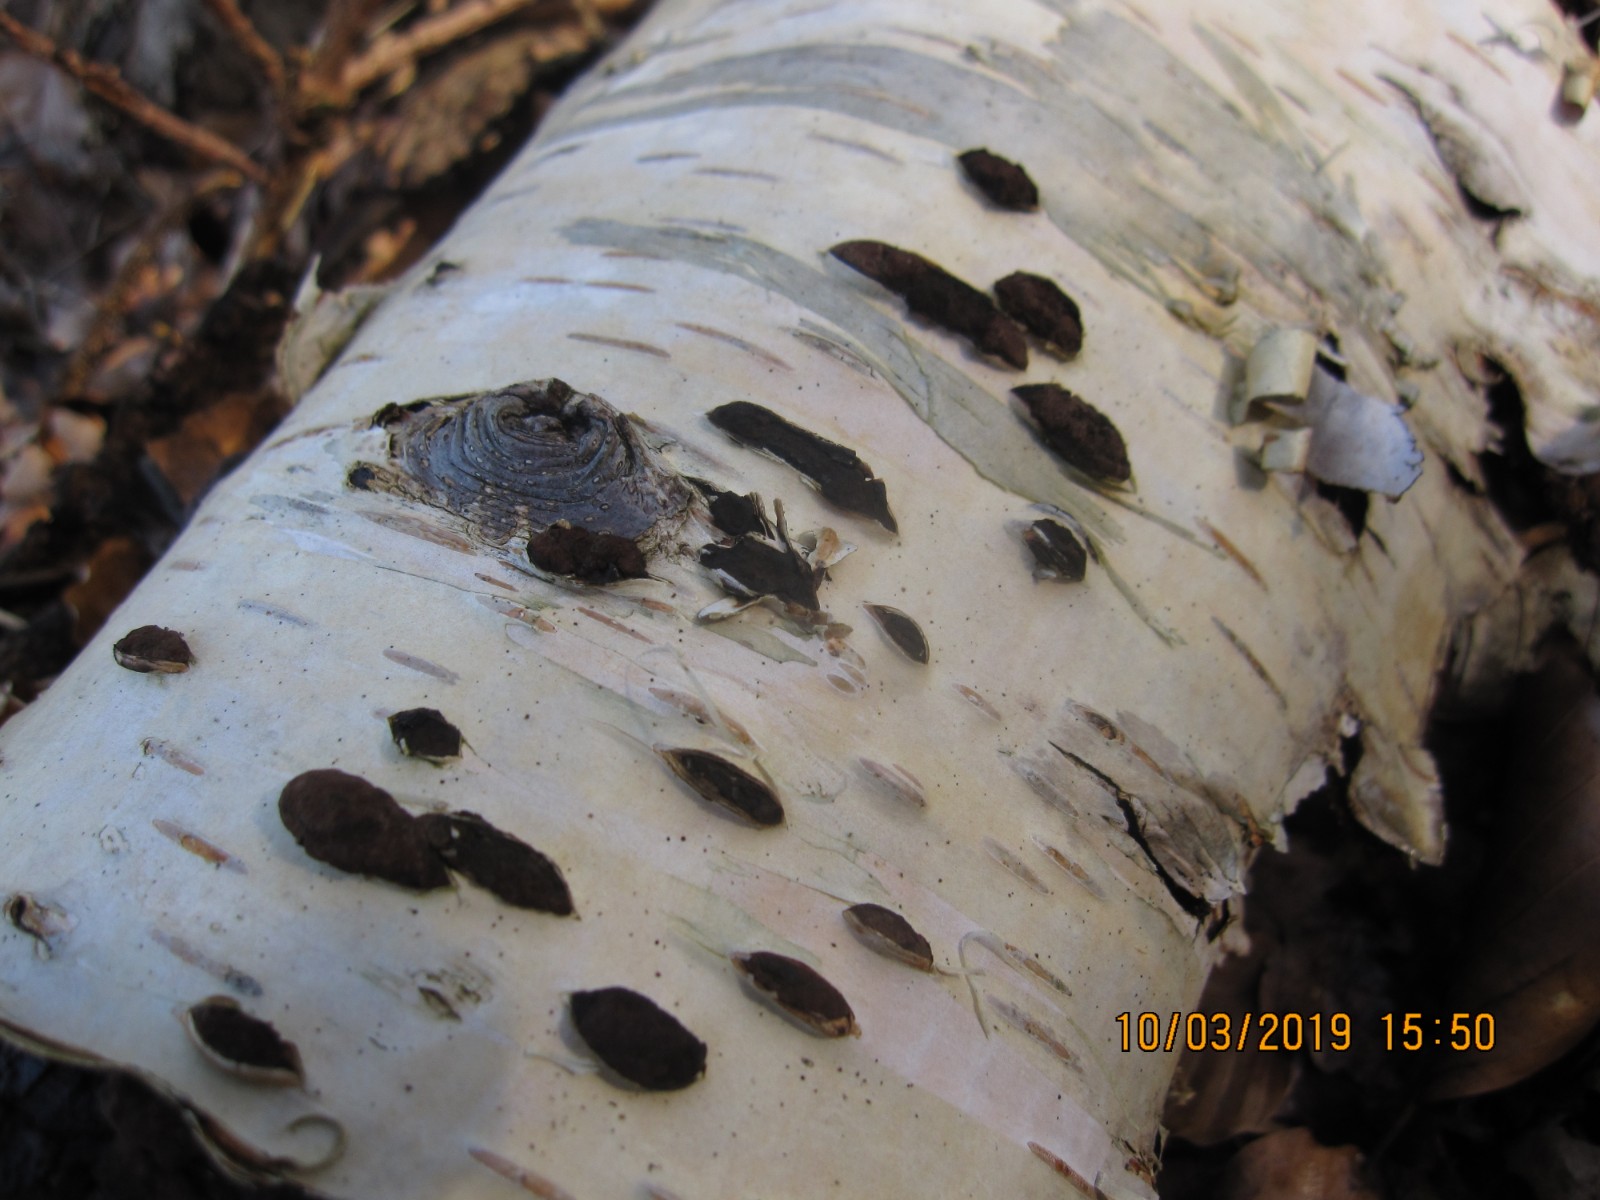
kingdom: Fungi
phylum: Ascomycota
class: Sordariomycetes
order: Xylariales
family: Hypoxylaceae
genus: Jackrogersella
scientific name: Jackrogersella multiformis
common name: foranderlig kulbær
